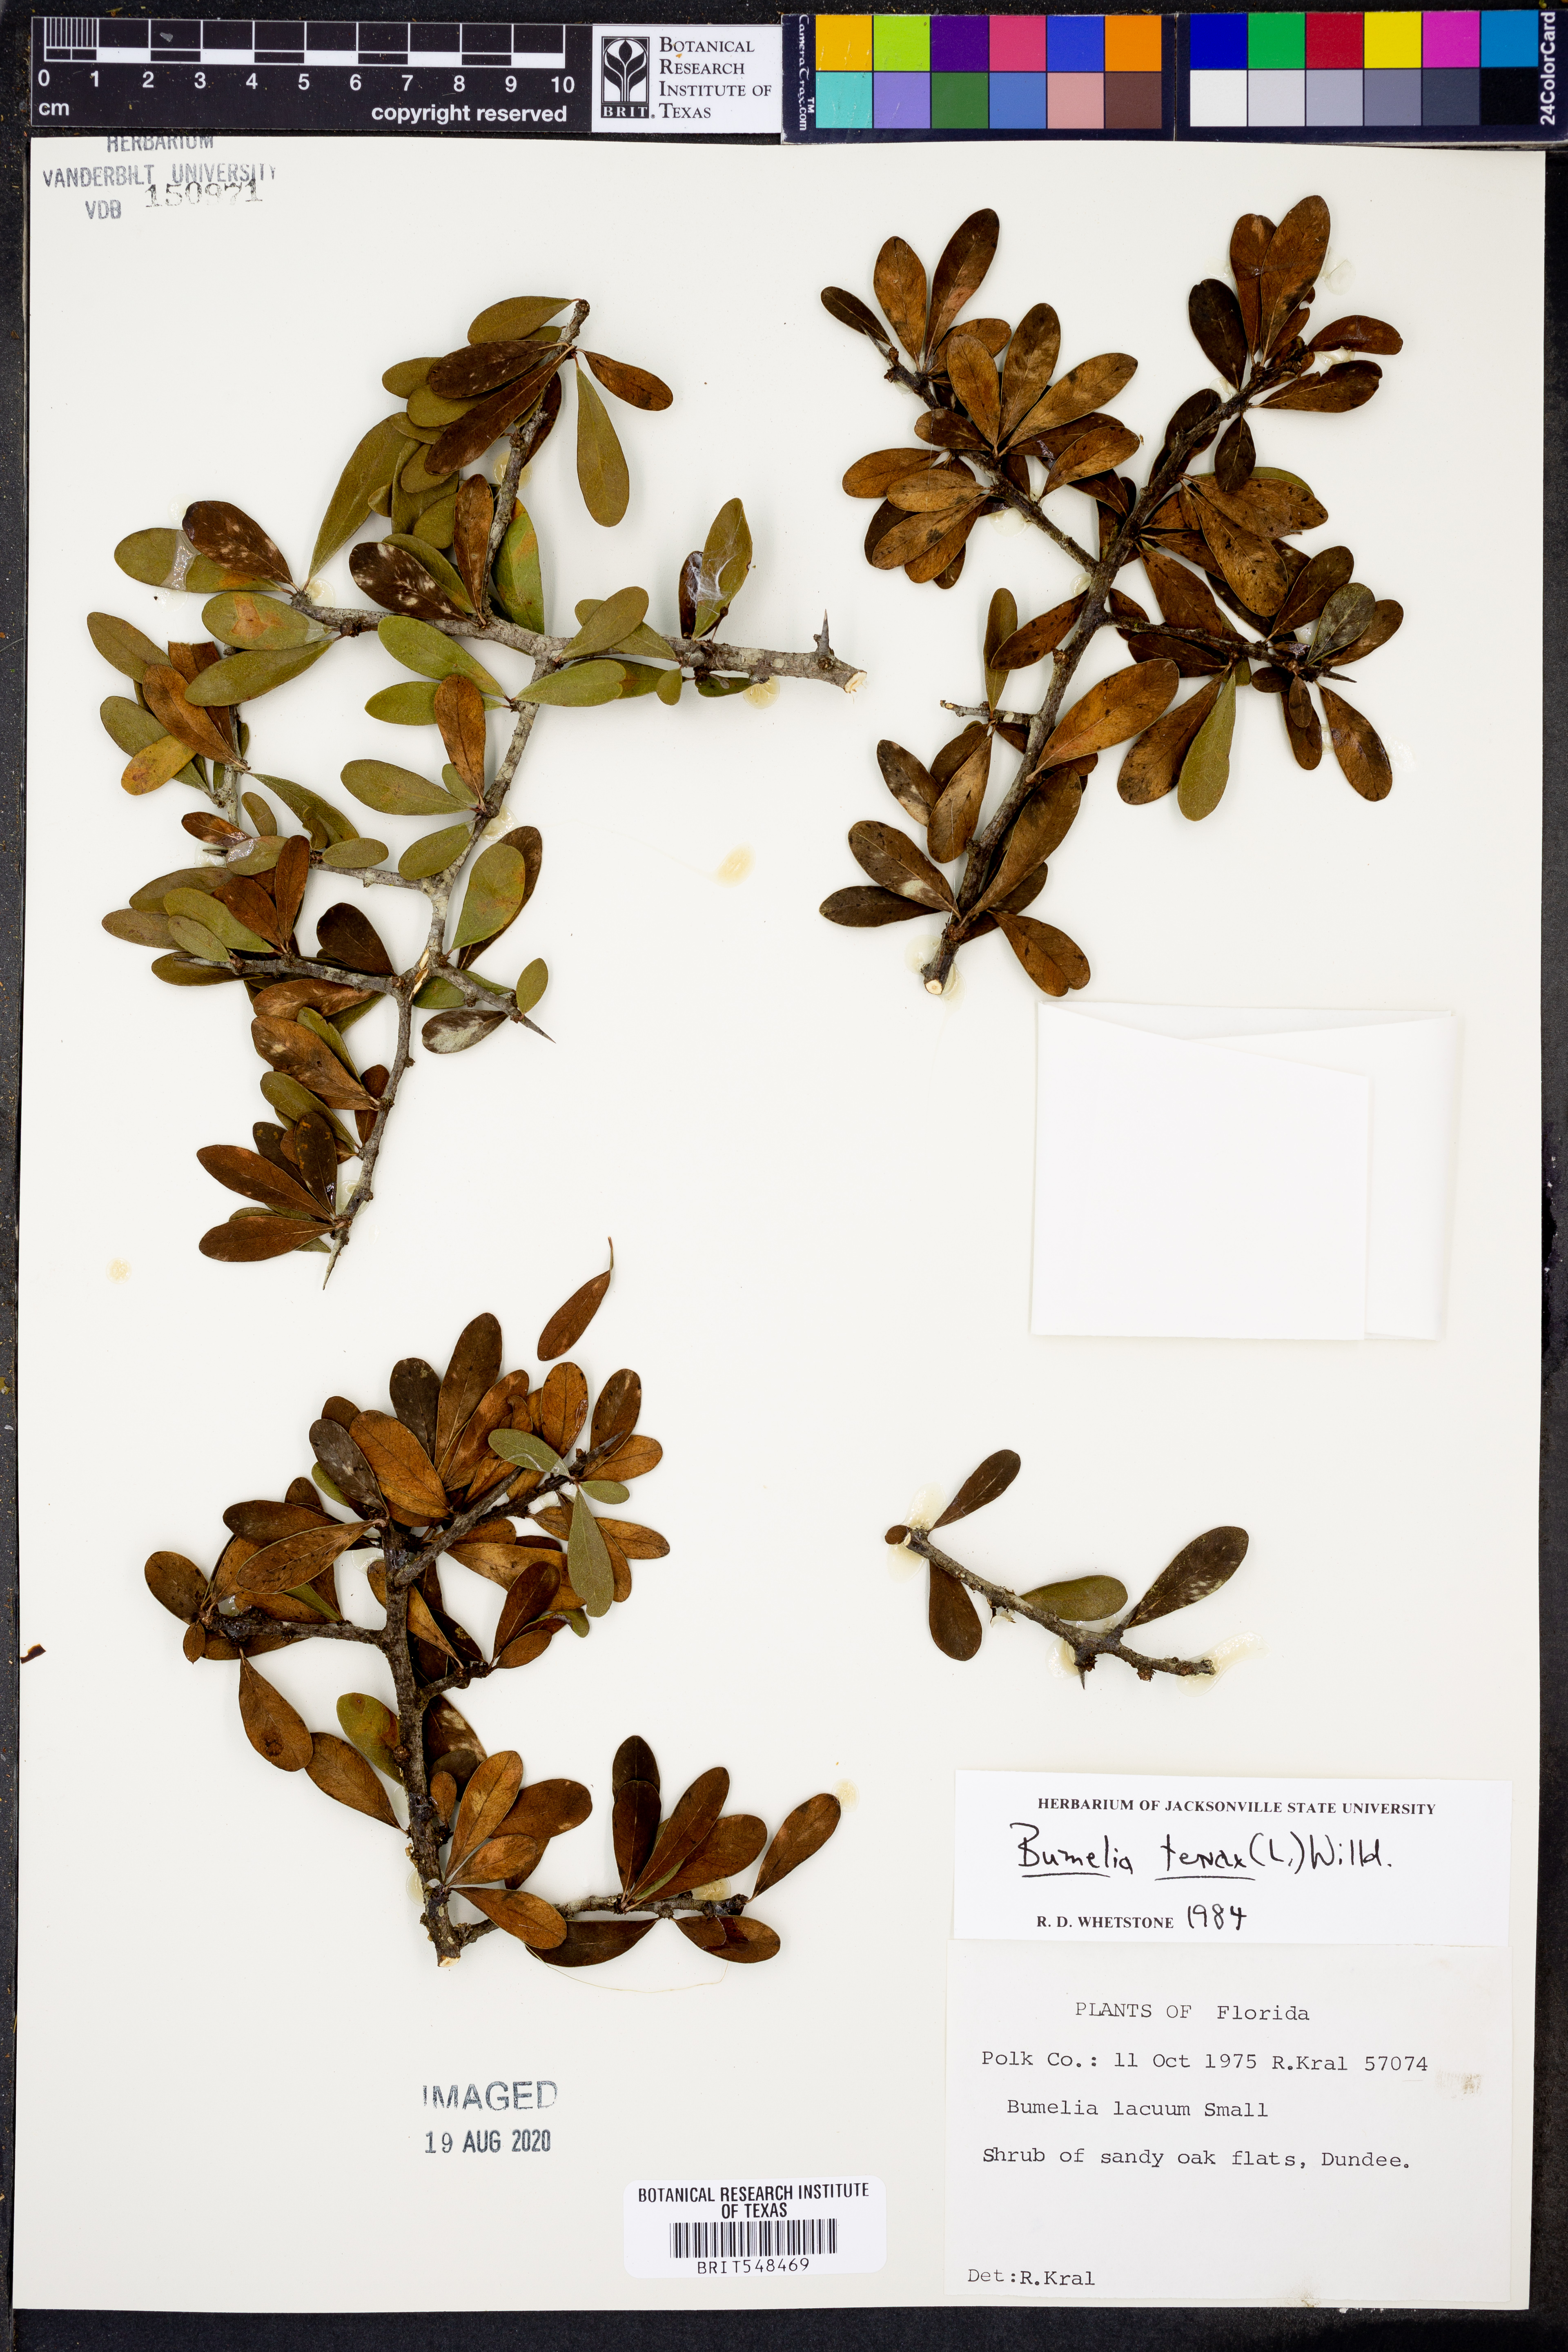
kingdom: Plantae
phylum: Tracheophyta
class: Magnoliopsida
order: Ericales
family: Sapotaceae
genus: Sideroxylon
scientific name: Sideroxylon tenax
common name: Tough-buckthorn
